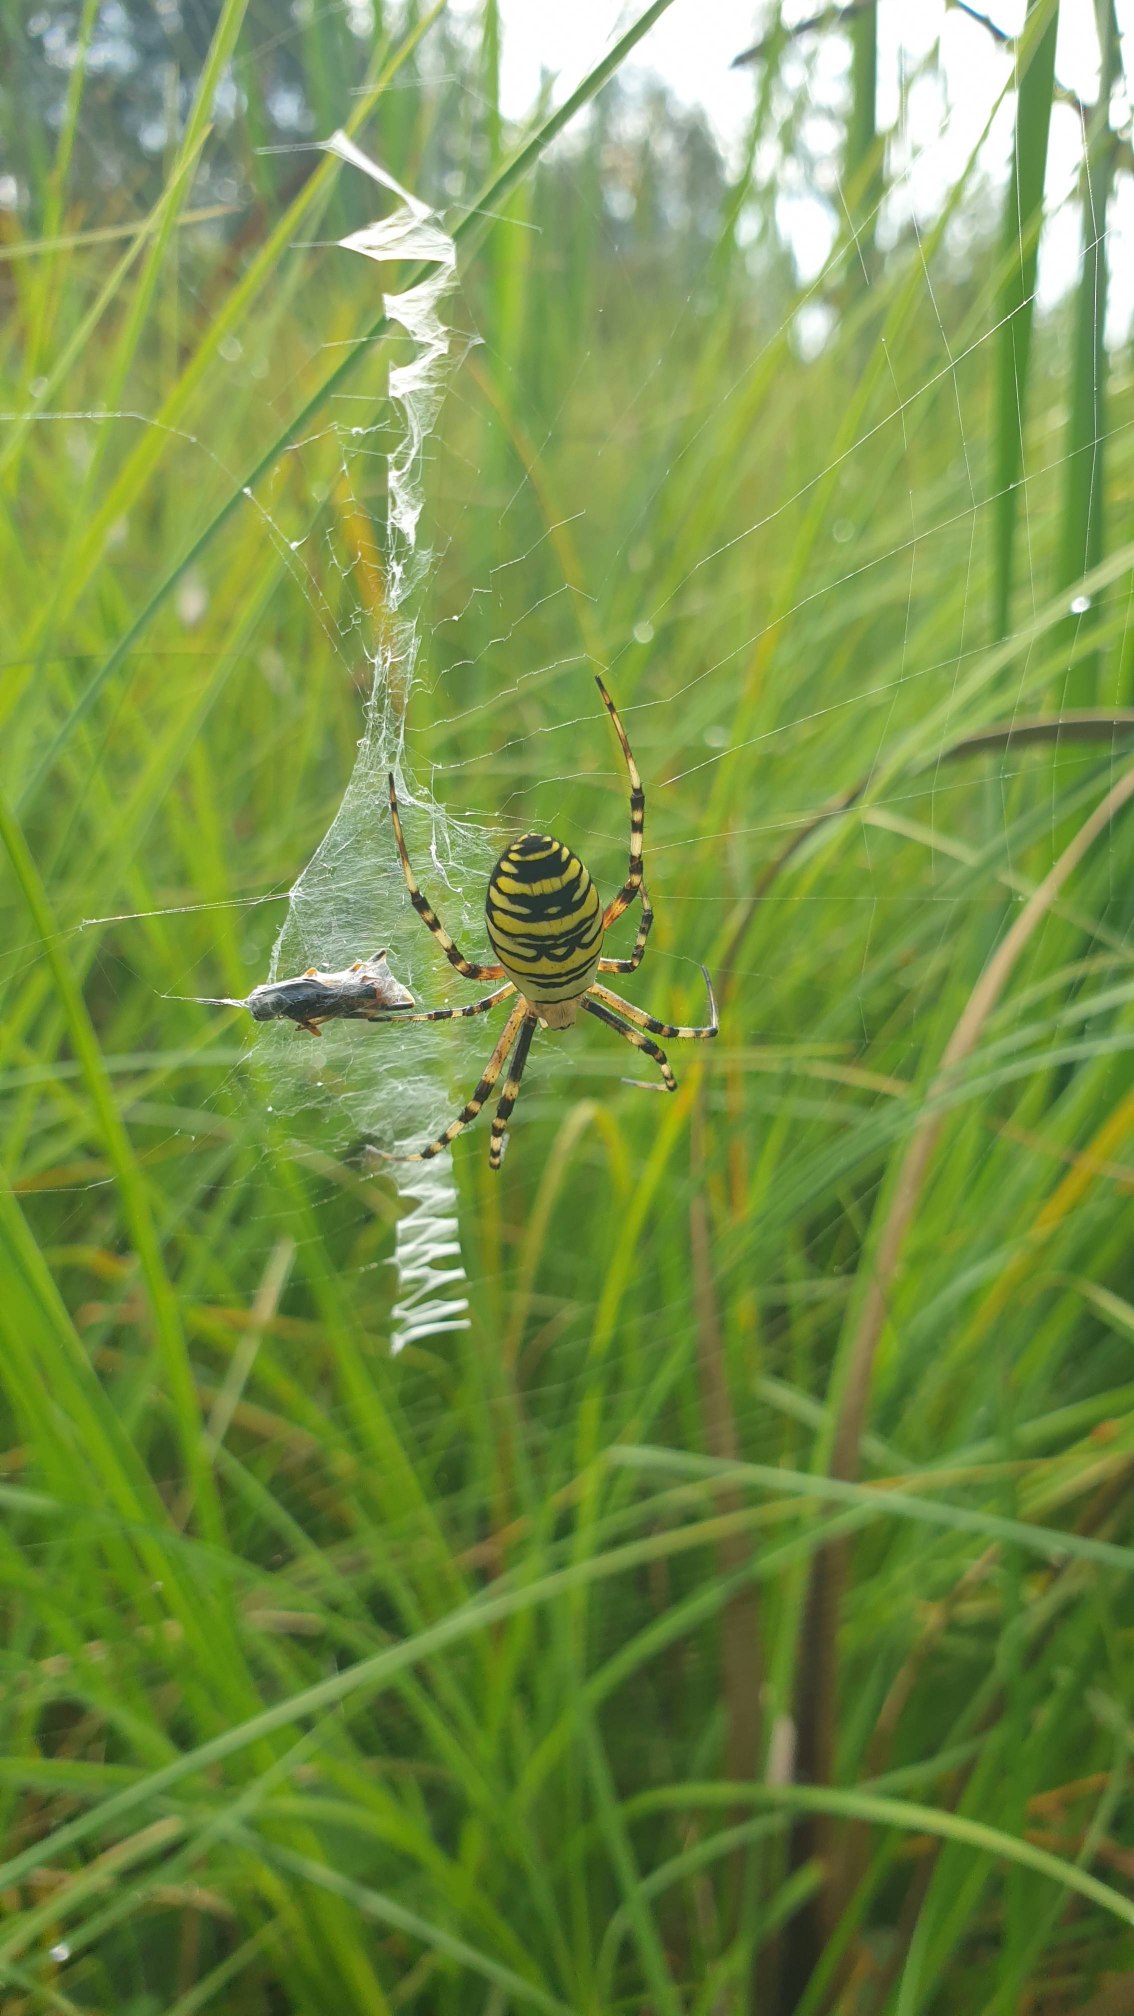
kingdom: Animalia
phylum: Arthropoda
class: Arachnida
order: Araneae
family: Araneidae
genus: Argiope
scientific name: Argiope bruennichi
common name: Hvepseedderkop
